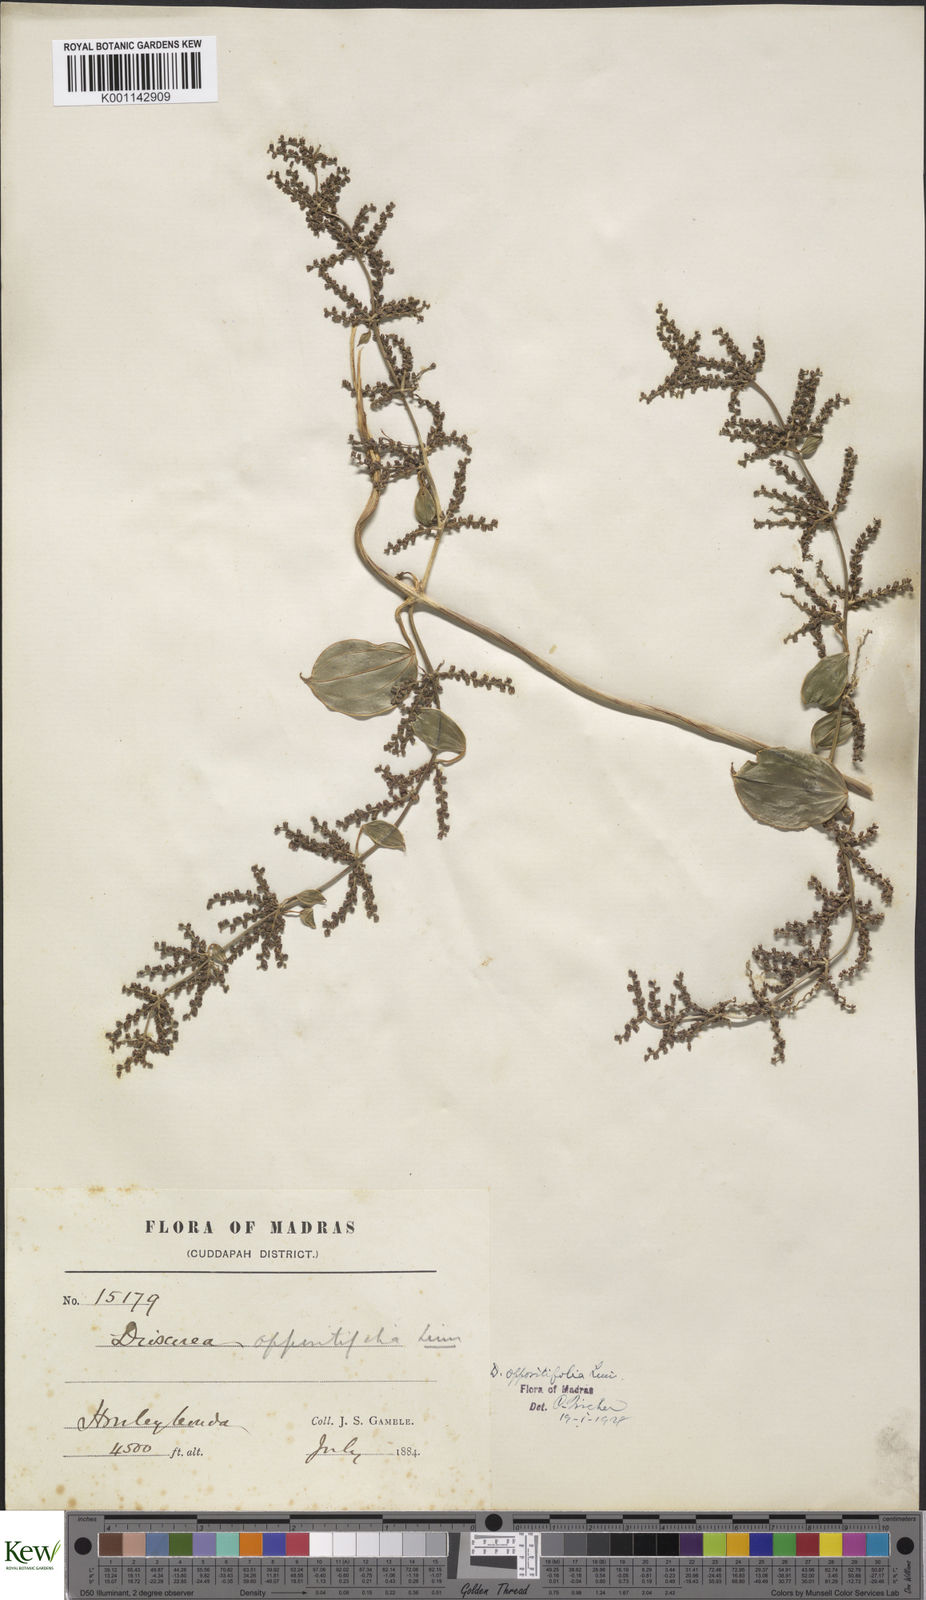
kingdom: Plantae
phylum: Tracheophyta
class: Liliopsida
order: Dioscoreales
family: Dioscoreaceae
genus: Dioscorea
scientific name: Dioscorea oppositifolia
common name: Chinese yam
